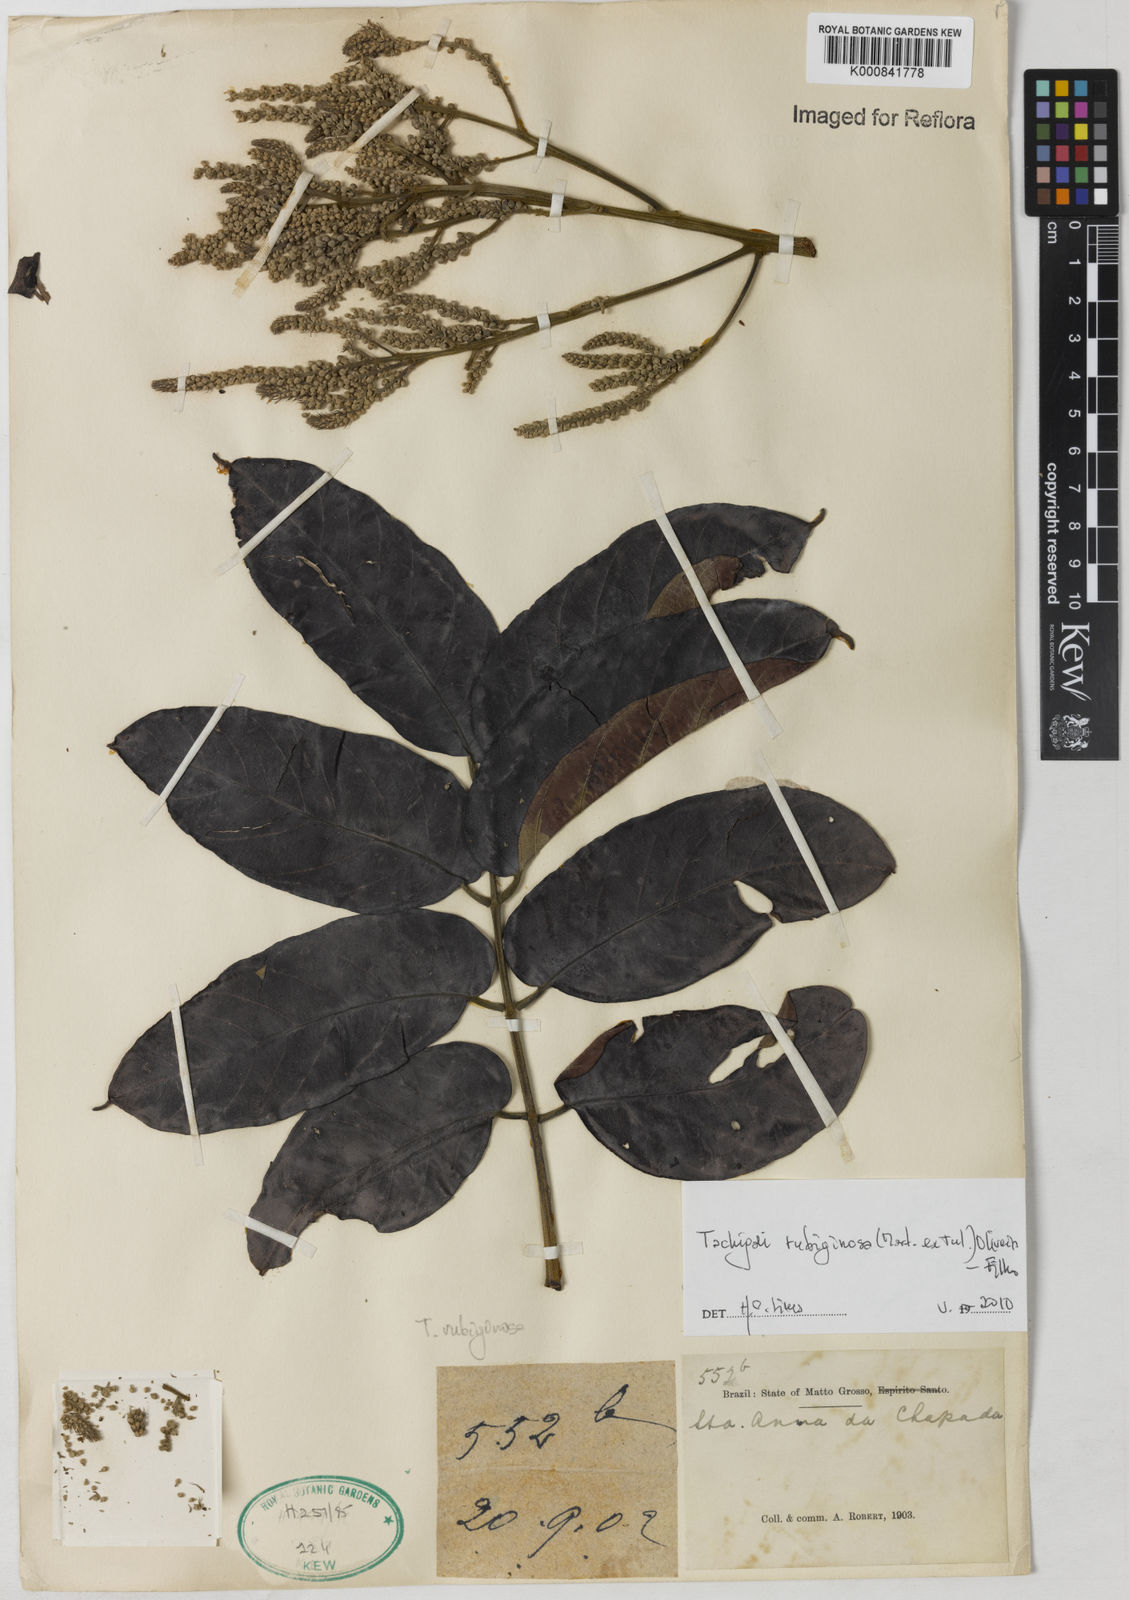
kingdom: Plantae
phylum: Tracheophyta
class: Magnoliopsida
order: Fabales
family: Fabaceae
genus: Tachigali
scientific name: Tachigali rubiginosa
